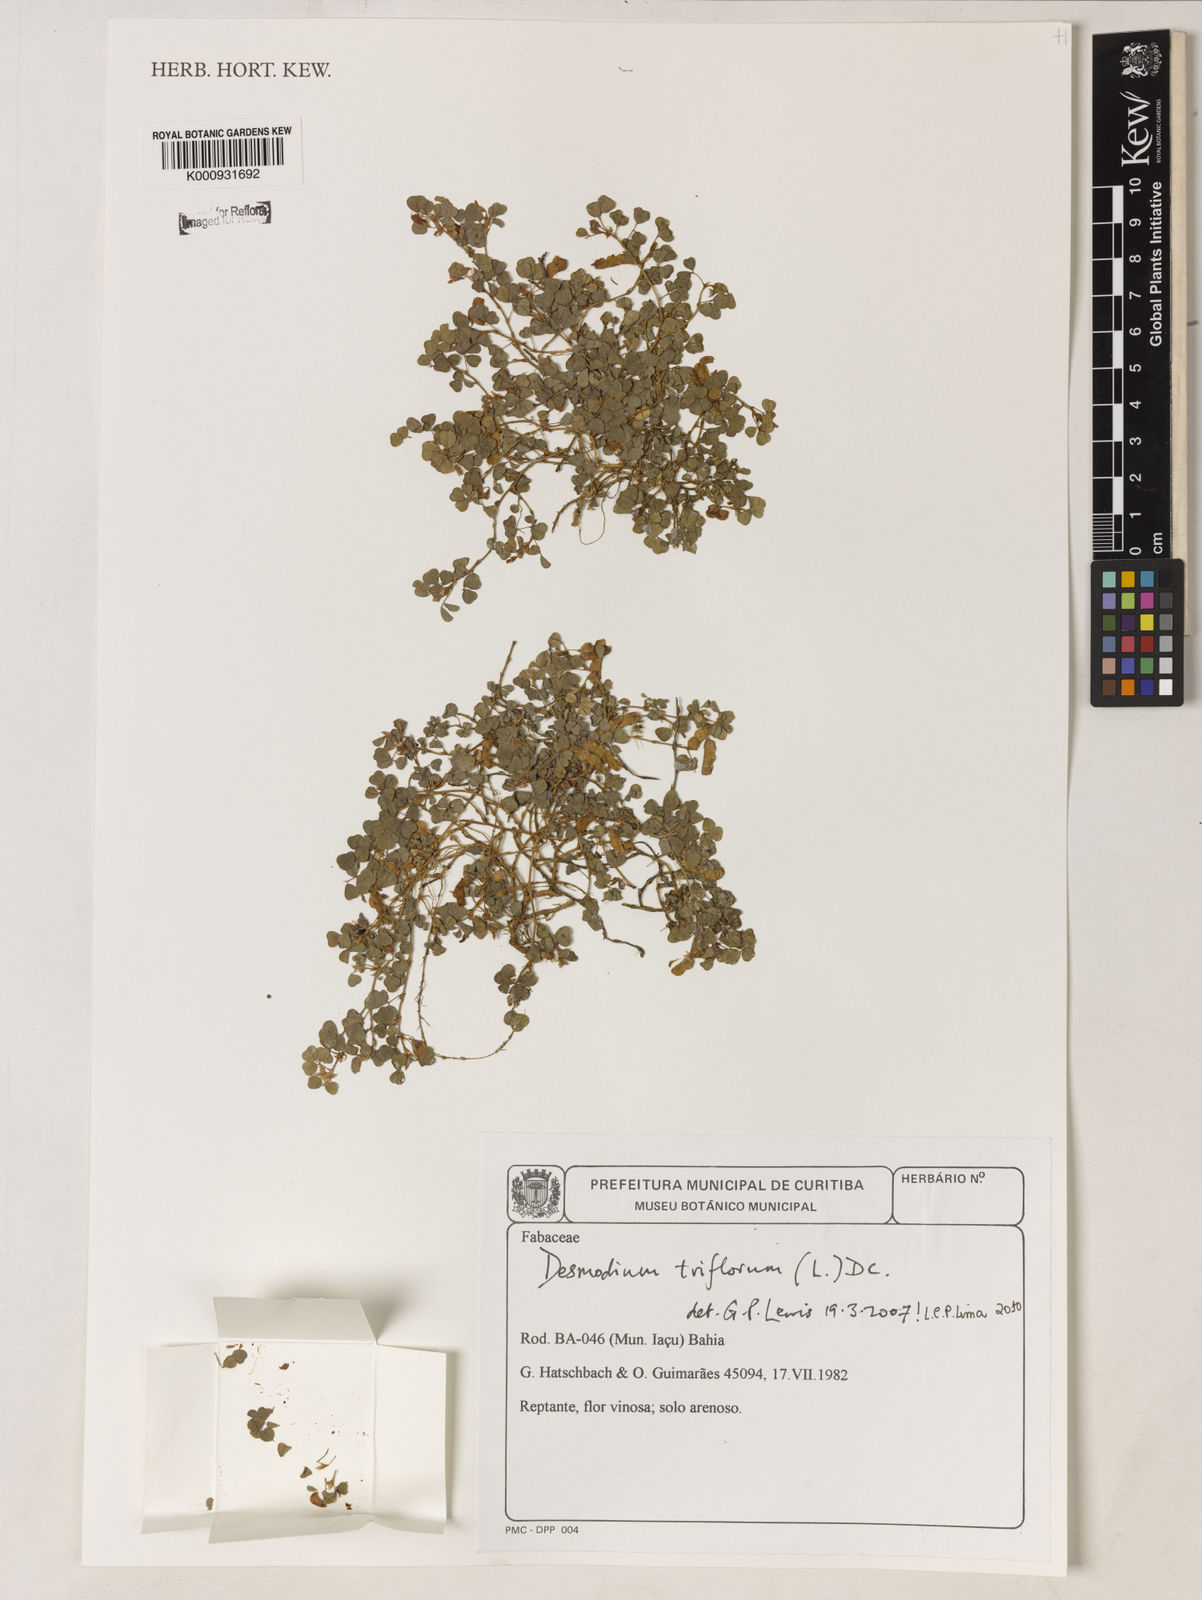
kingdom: Plantae
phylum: Tracheophyta
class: Magnoliopsida
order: Fabales
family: Fabaceae
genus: Grona
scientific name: Grona triflora
